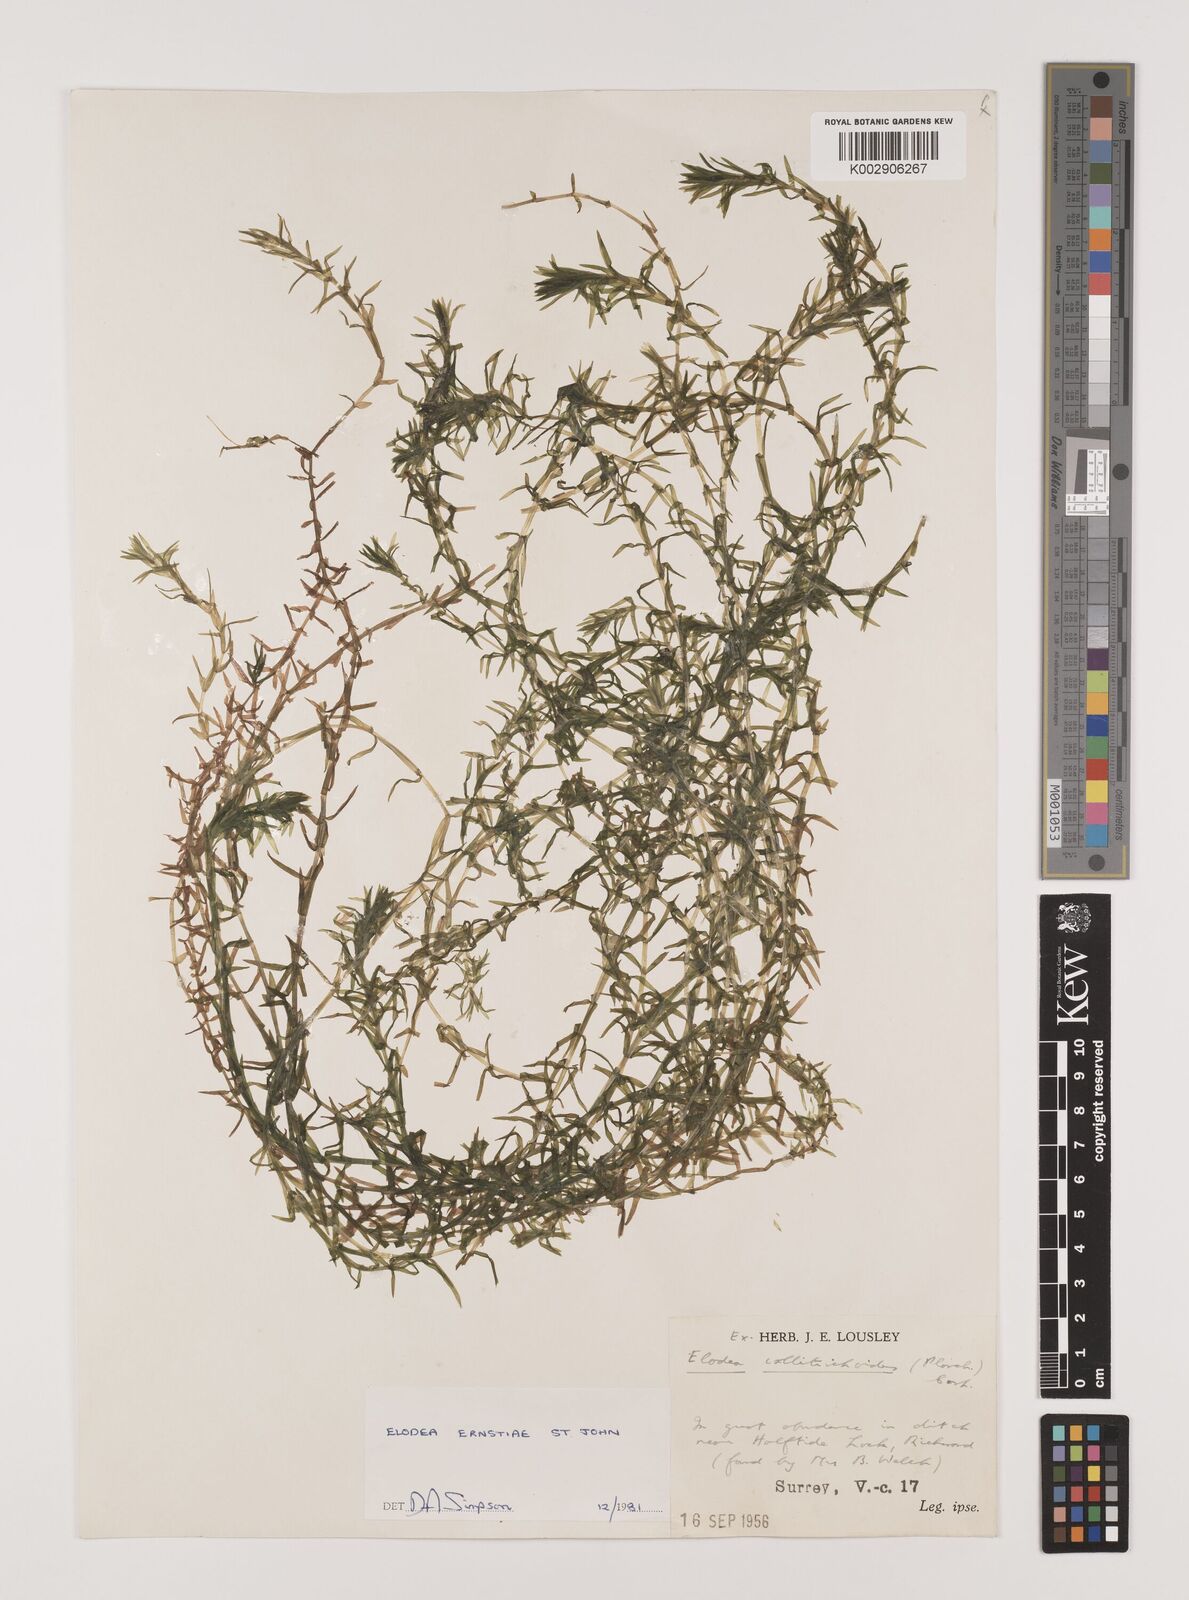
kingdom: Plantae
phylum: Tracheophyta
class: Liliopsida
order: Alismatales
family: Hydrocharitaceae
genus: Elodea
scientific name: Elodea callitrichoides
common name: South american waterweed
